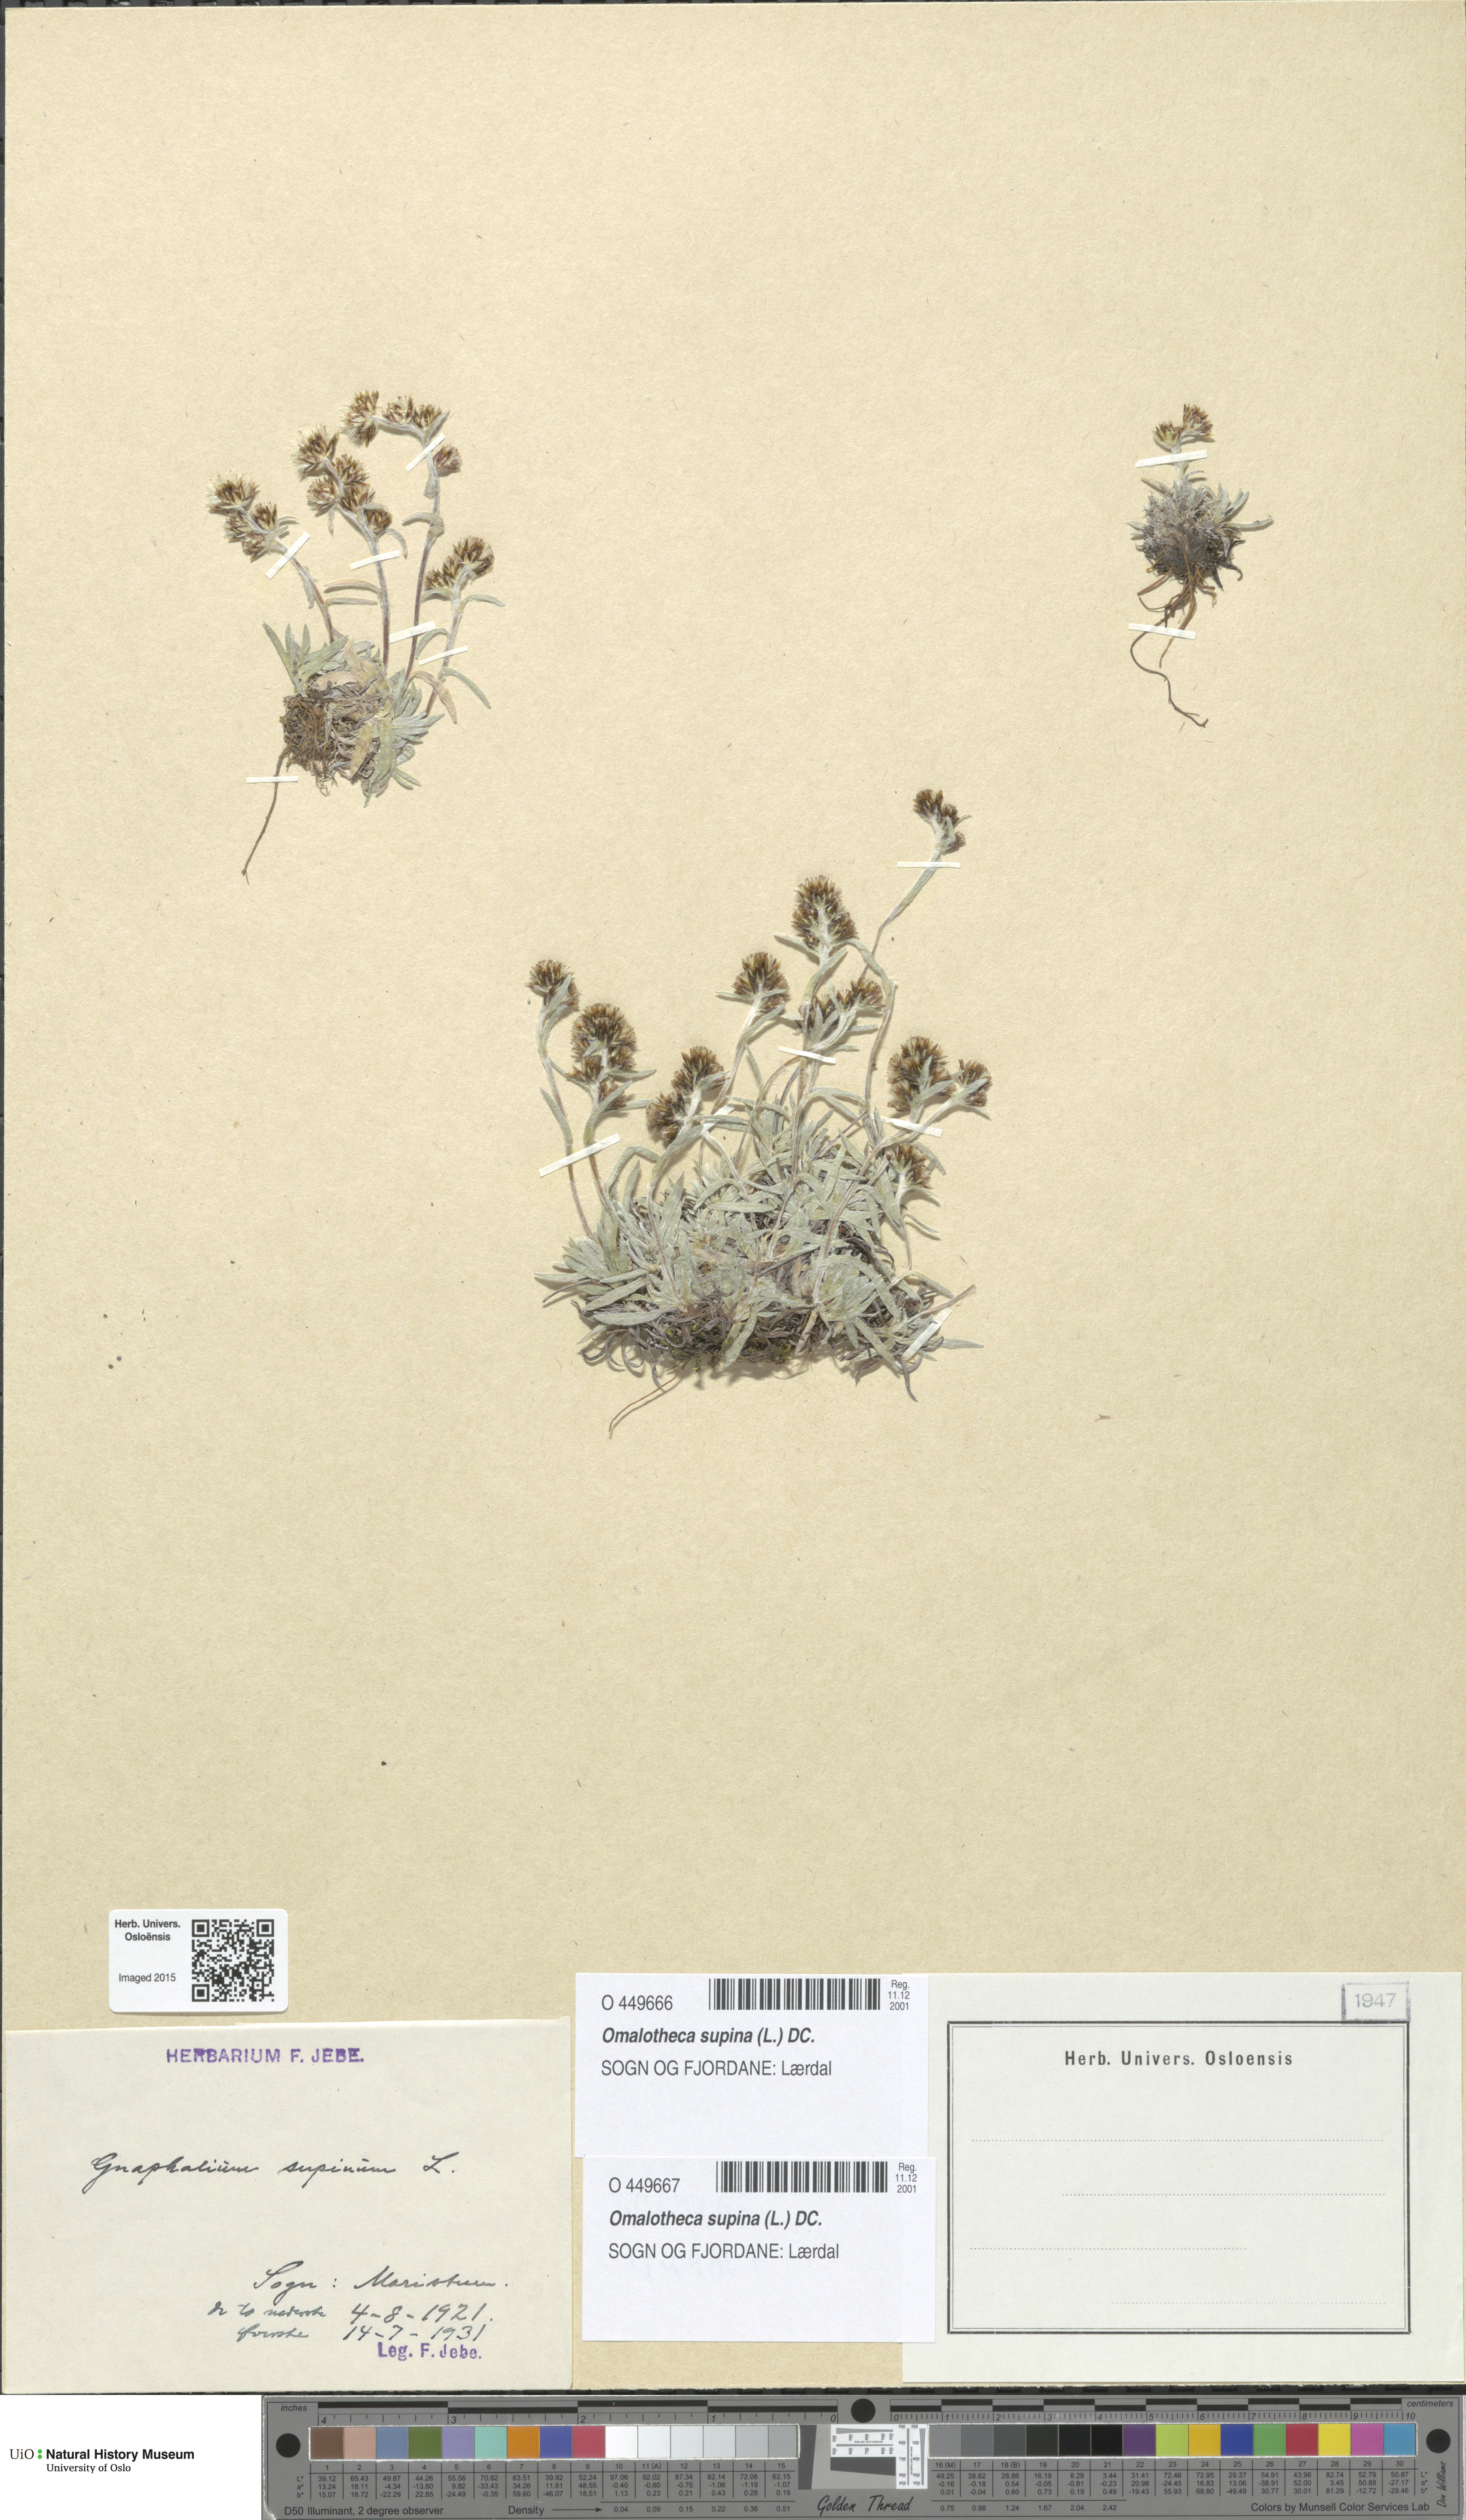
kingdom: Plantae
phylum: Tracheophyta
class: Magnoliopsida
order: Asterales
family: Asteraceae
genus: Omalotheca
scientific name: Omalotheca supina
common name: Alpine arctic-cudweed
